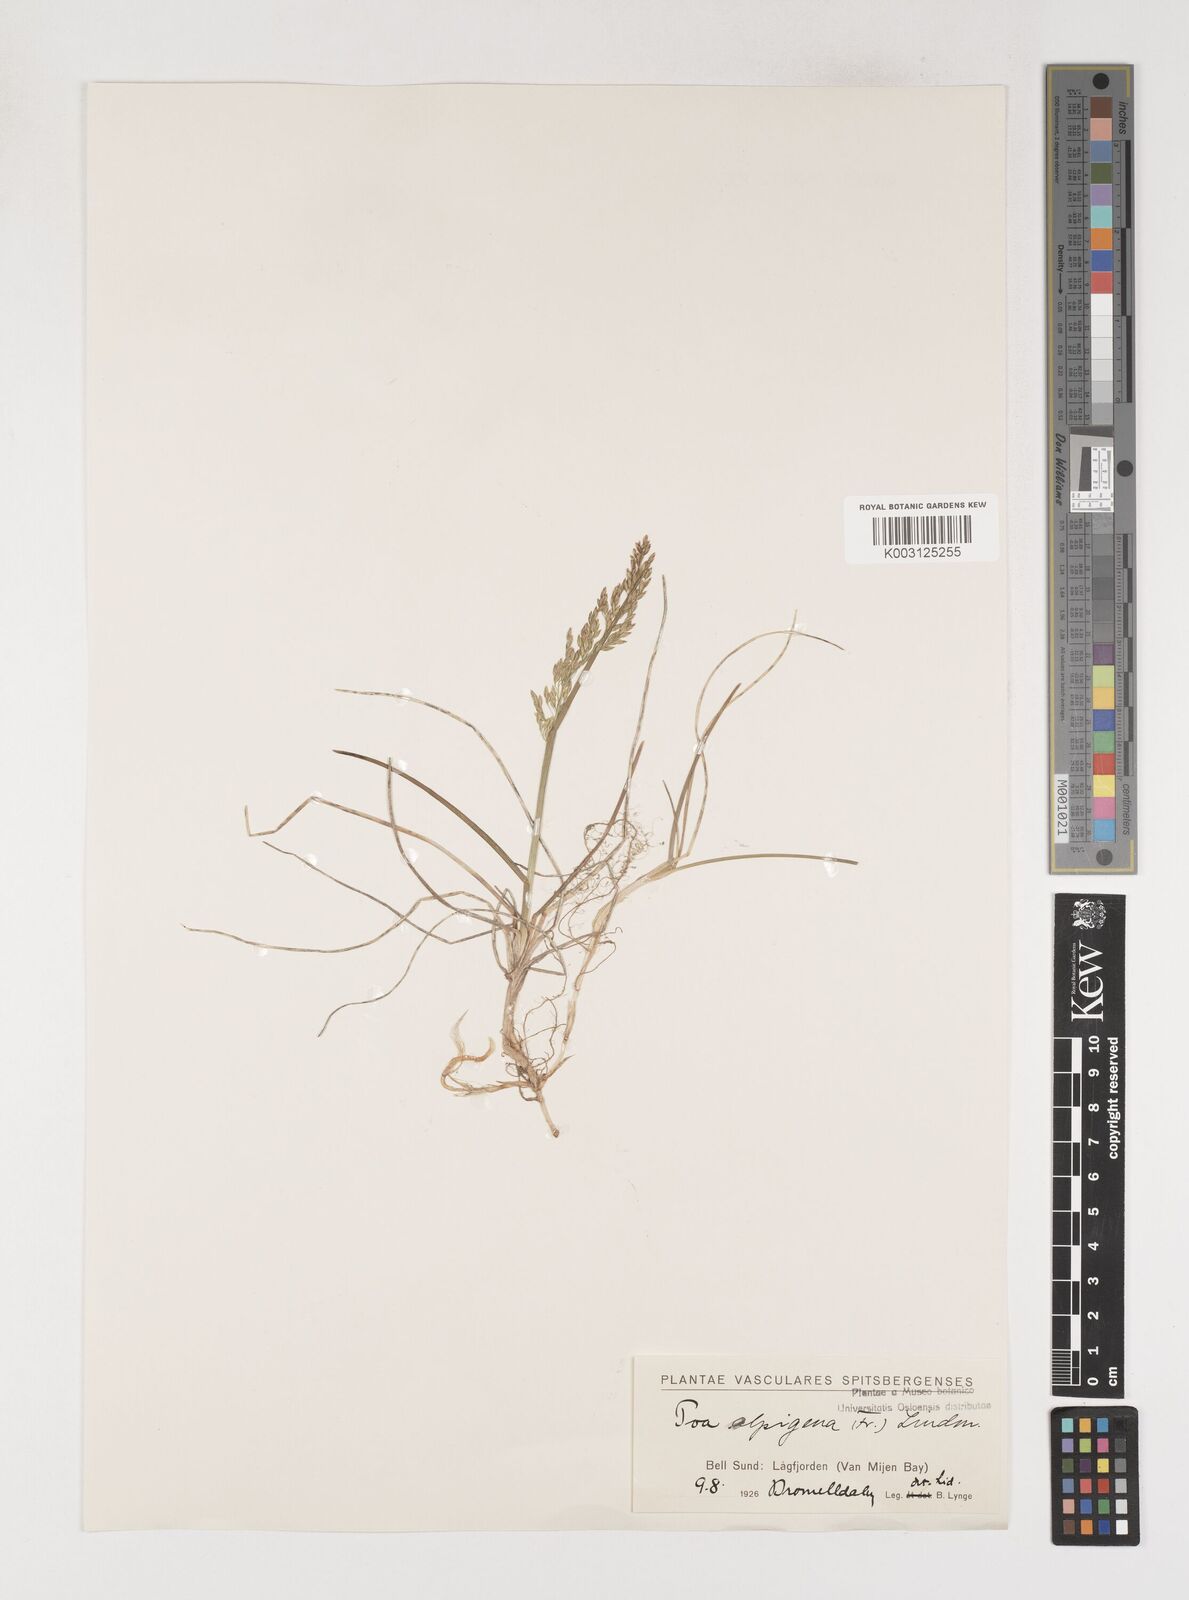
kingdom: Plantae
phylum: Tracheophyta
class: Liliopsida
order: Poales
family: Poaceae
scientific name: Poaceae
